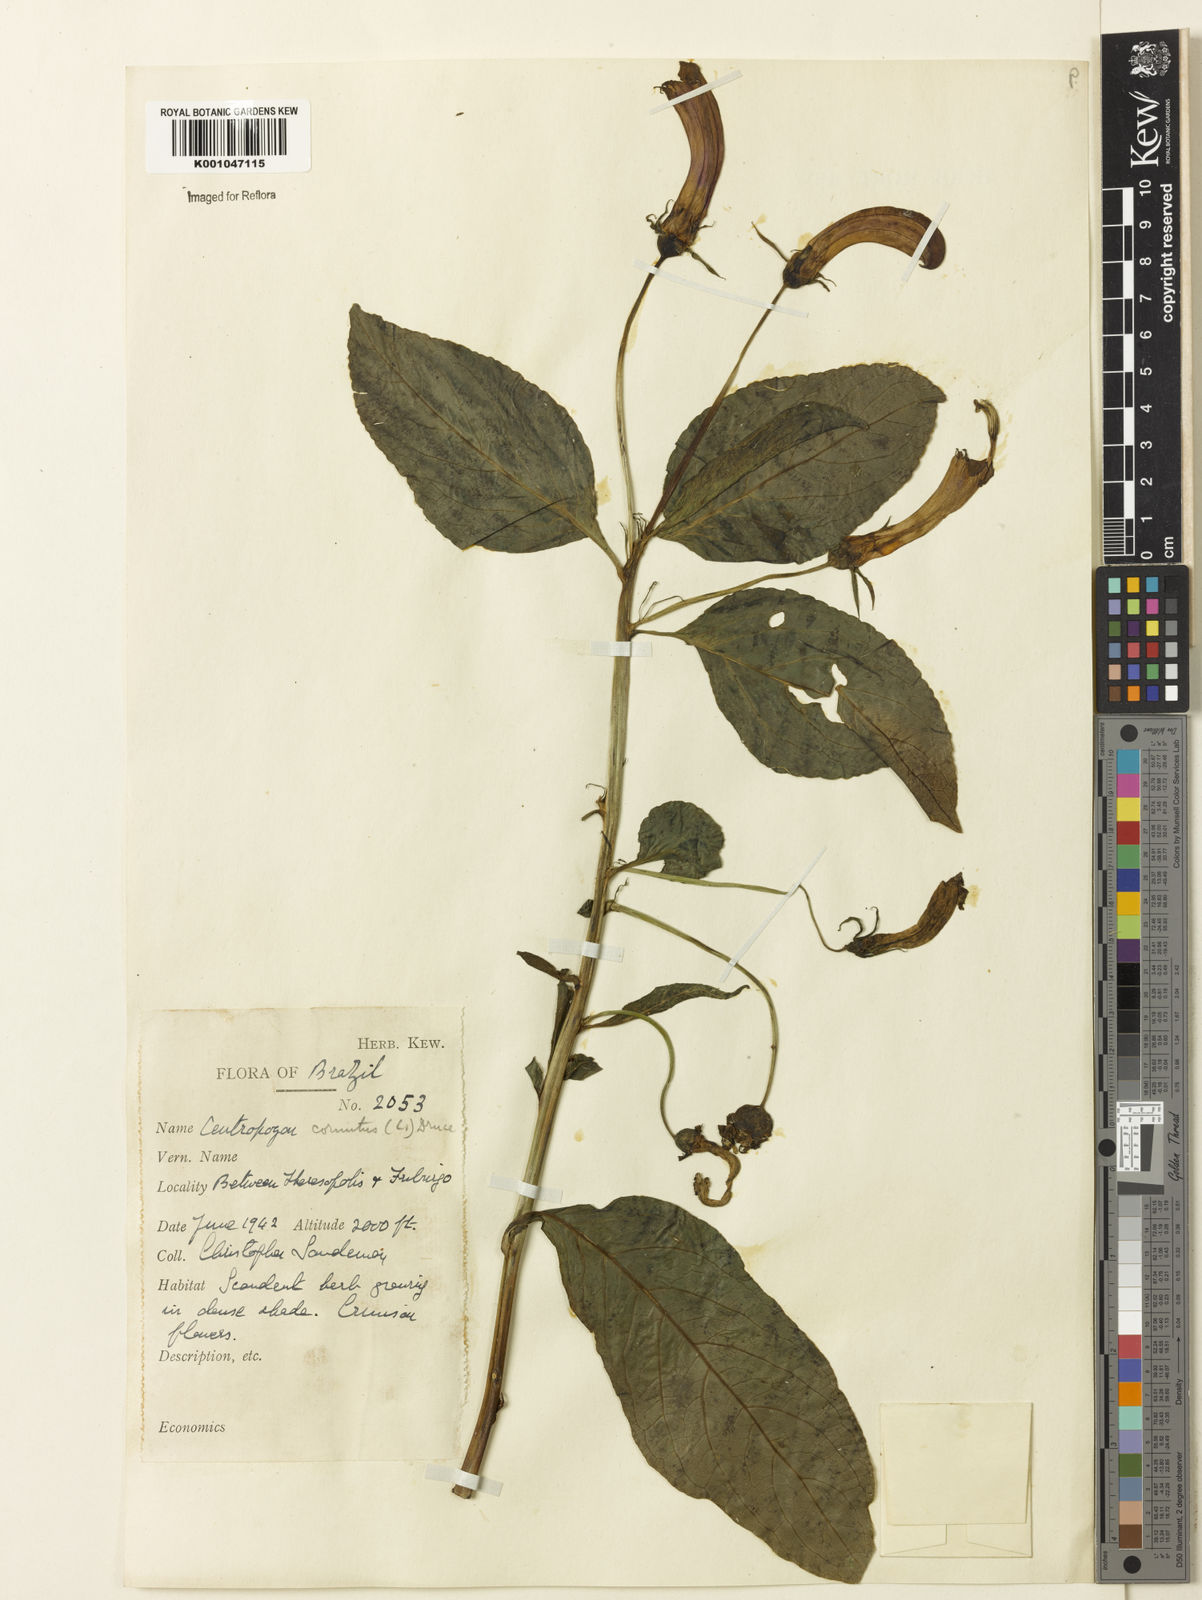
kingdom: Plantae
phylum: Tracheophyta
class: Magnoliopsida
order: Asterales
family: Campanulaceae
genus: Centropogon
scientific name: Centropogon cornutus
